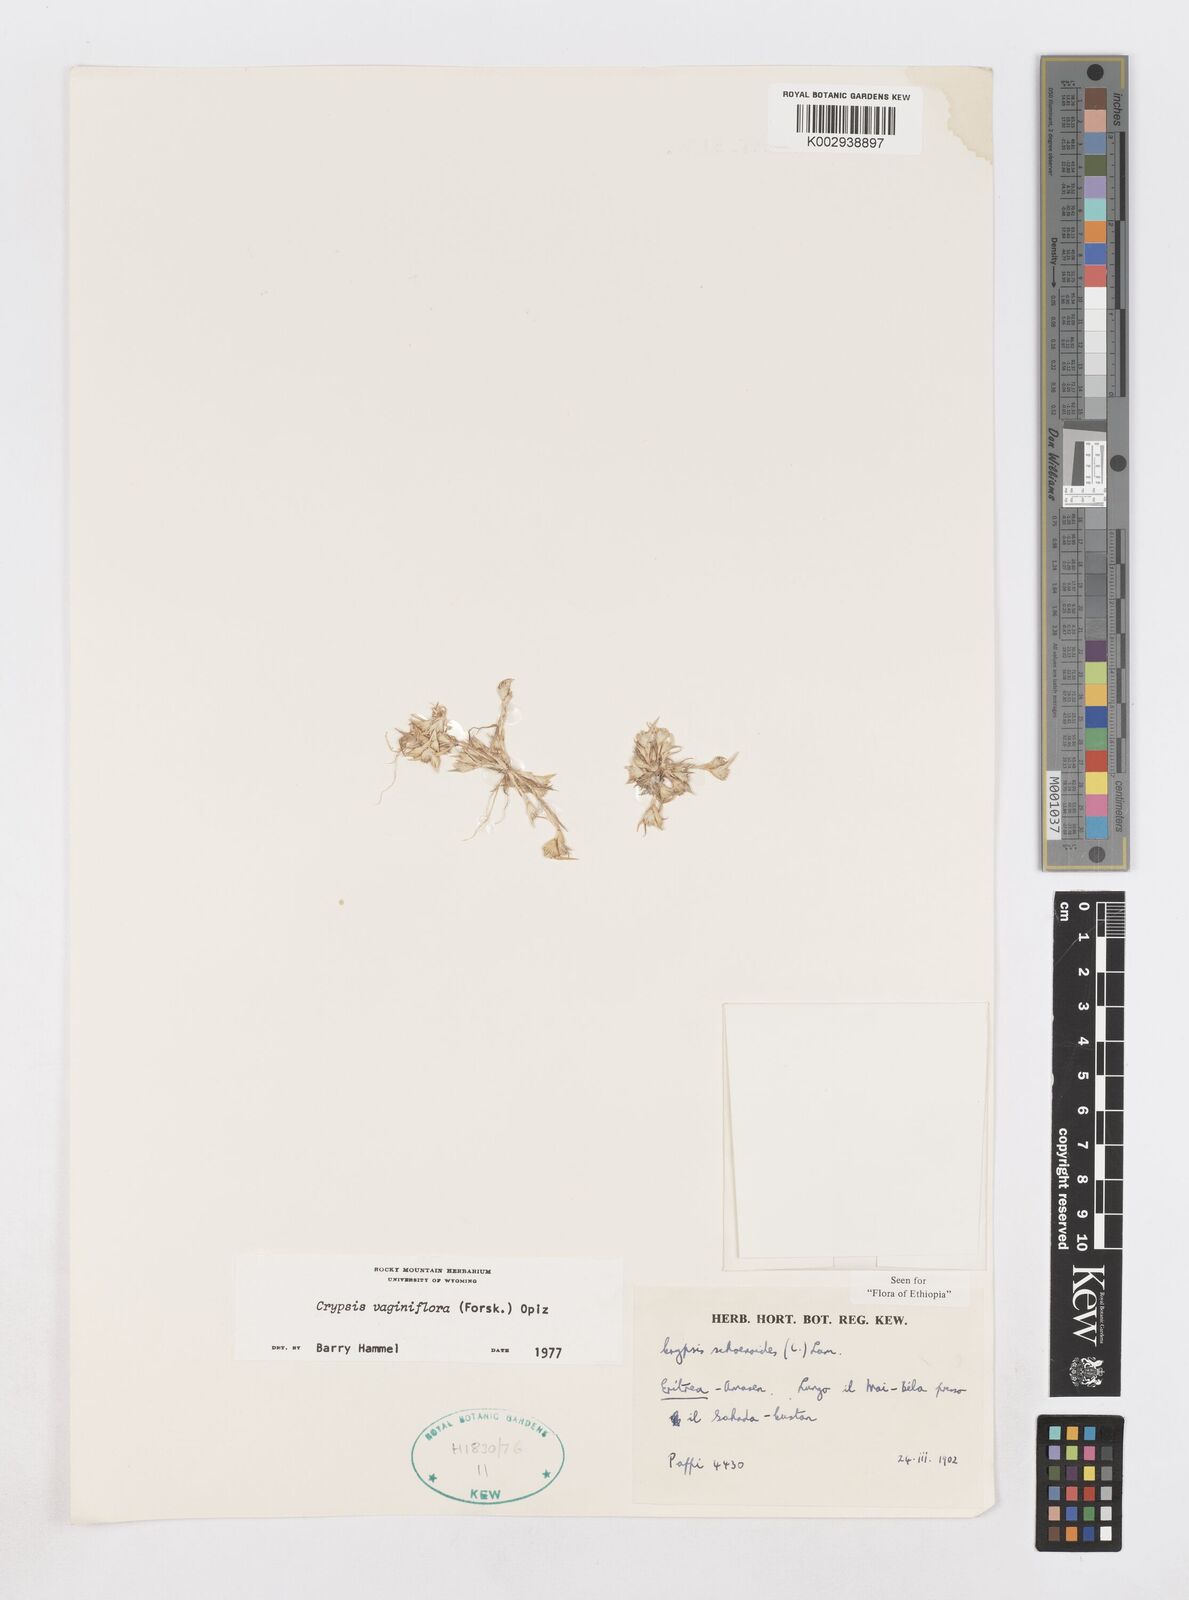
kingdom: Plantae
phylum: Tracheophyta
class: Liliopsida
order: Poales
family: Poaceae
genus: Sporobolus
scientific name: Sporobolus niliacus
